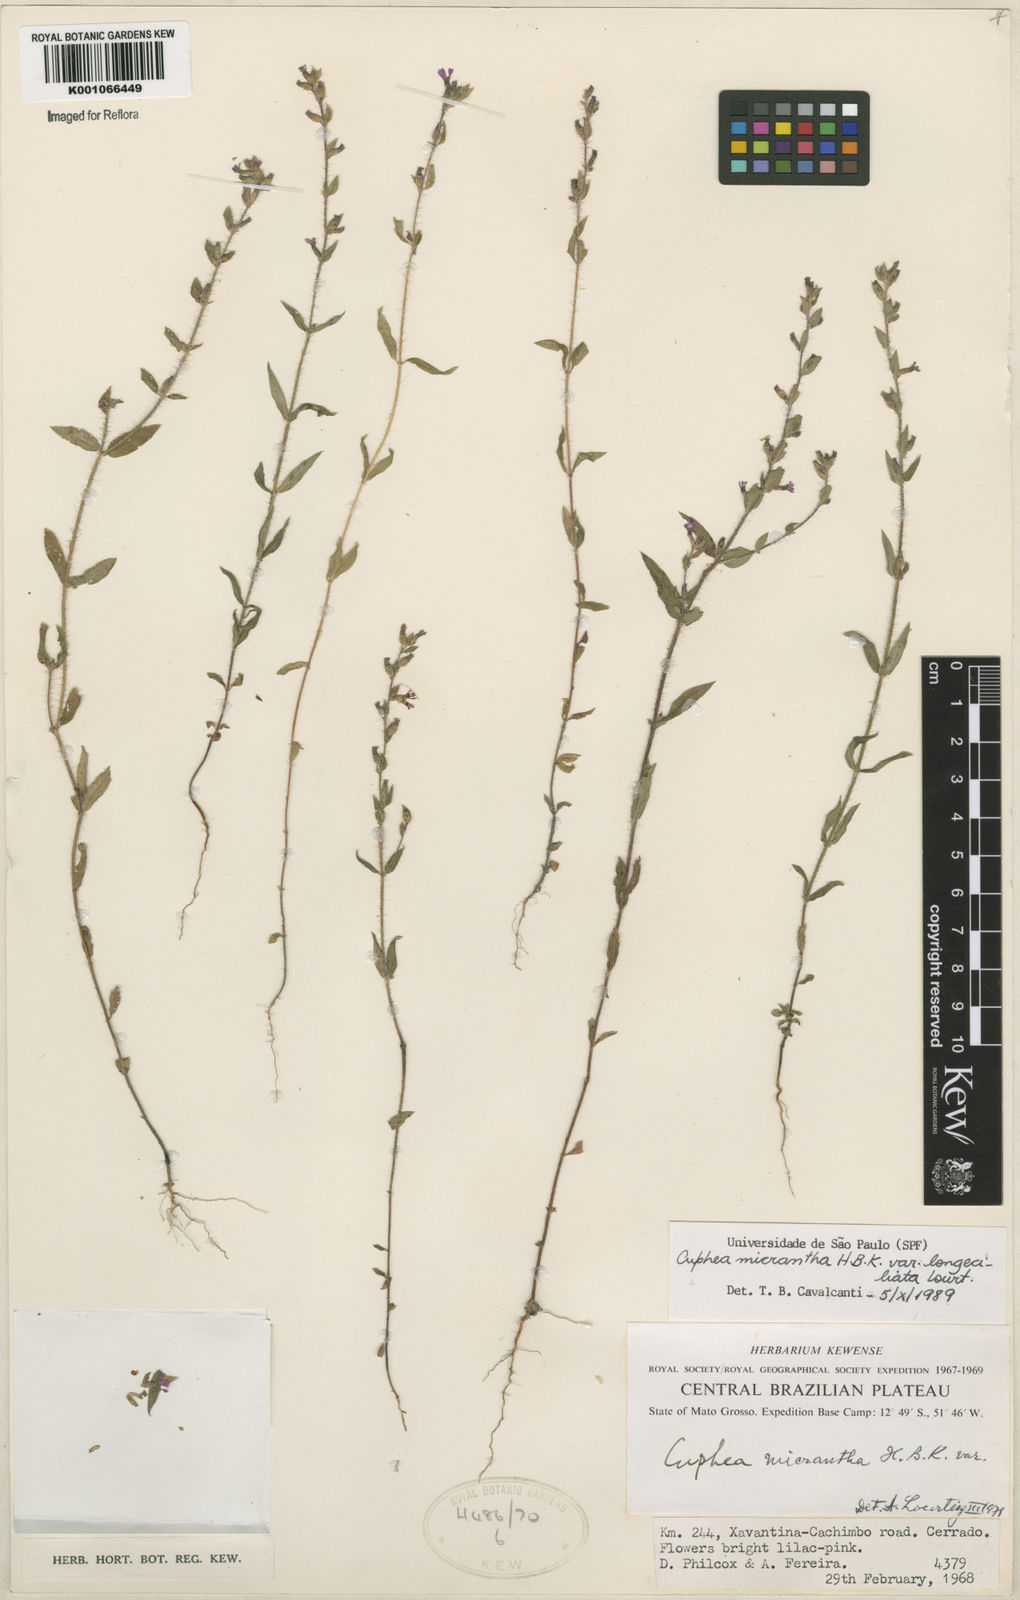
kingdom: Plantae
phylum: Tracheophyta
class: Magnoliopsida
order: Myrtales
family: Lythraceae
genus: Cuphea
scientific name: Cuphea micrantha
